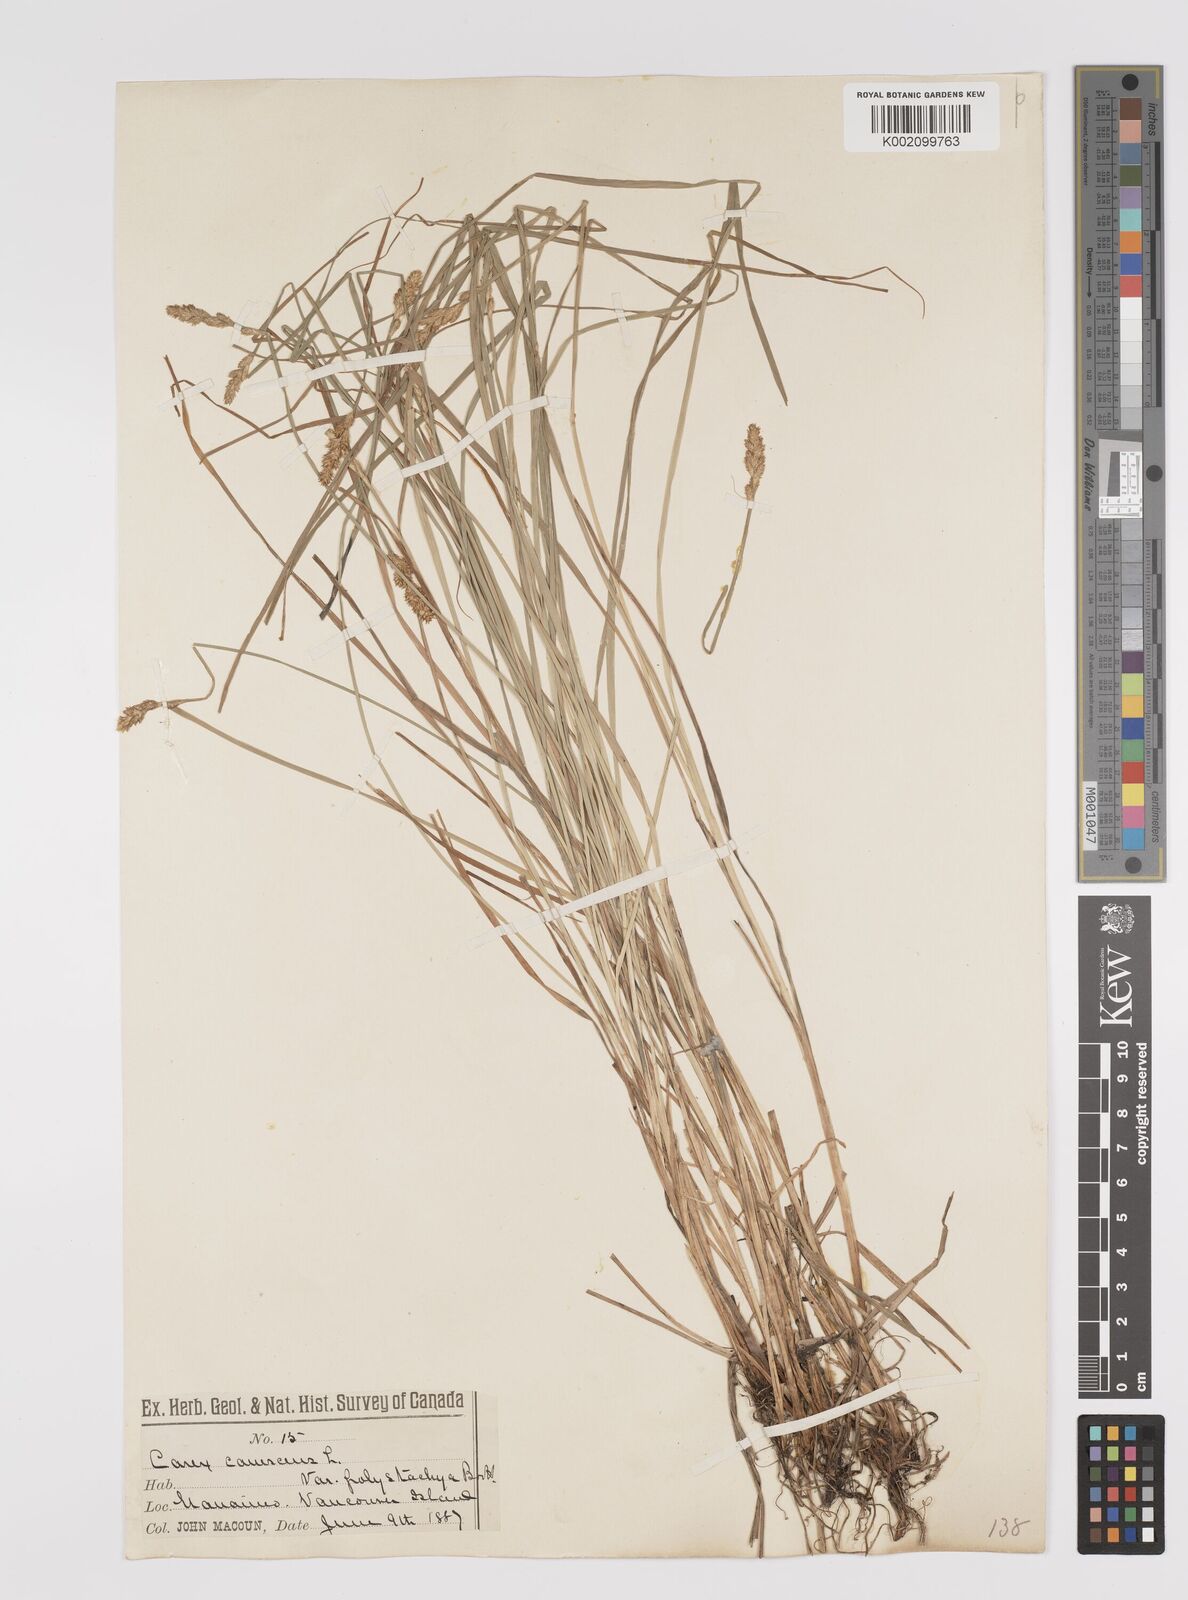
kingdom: Plantae
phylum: Tracheophyta
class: Liliopsida
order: Poales
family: Cyperaceae
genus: Carex
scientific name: Carex curta
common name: White sedge
